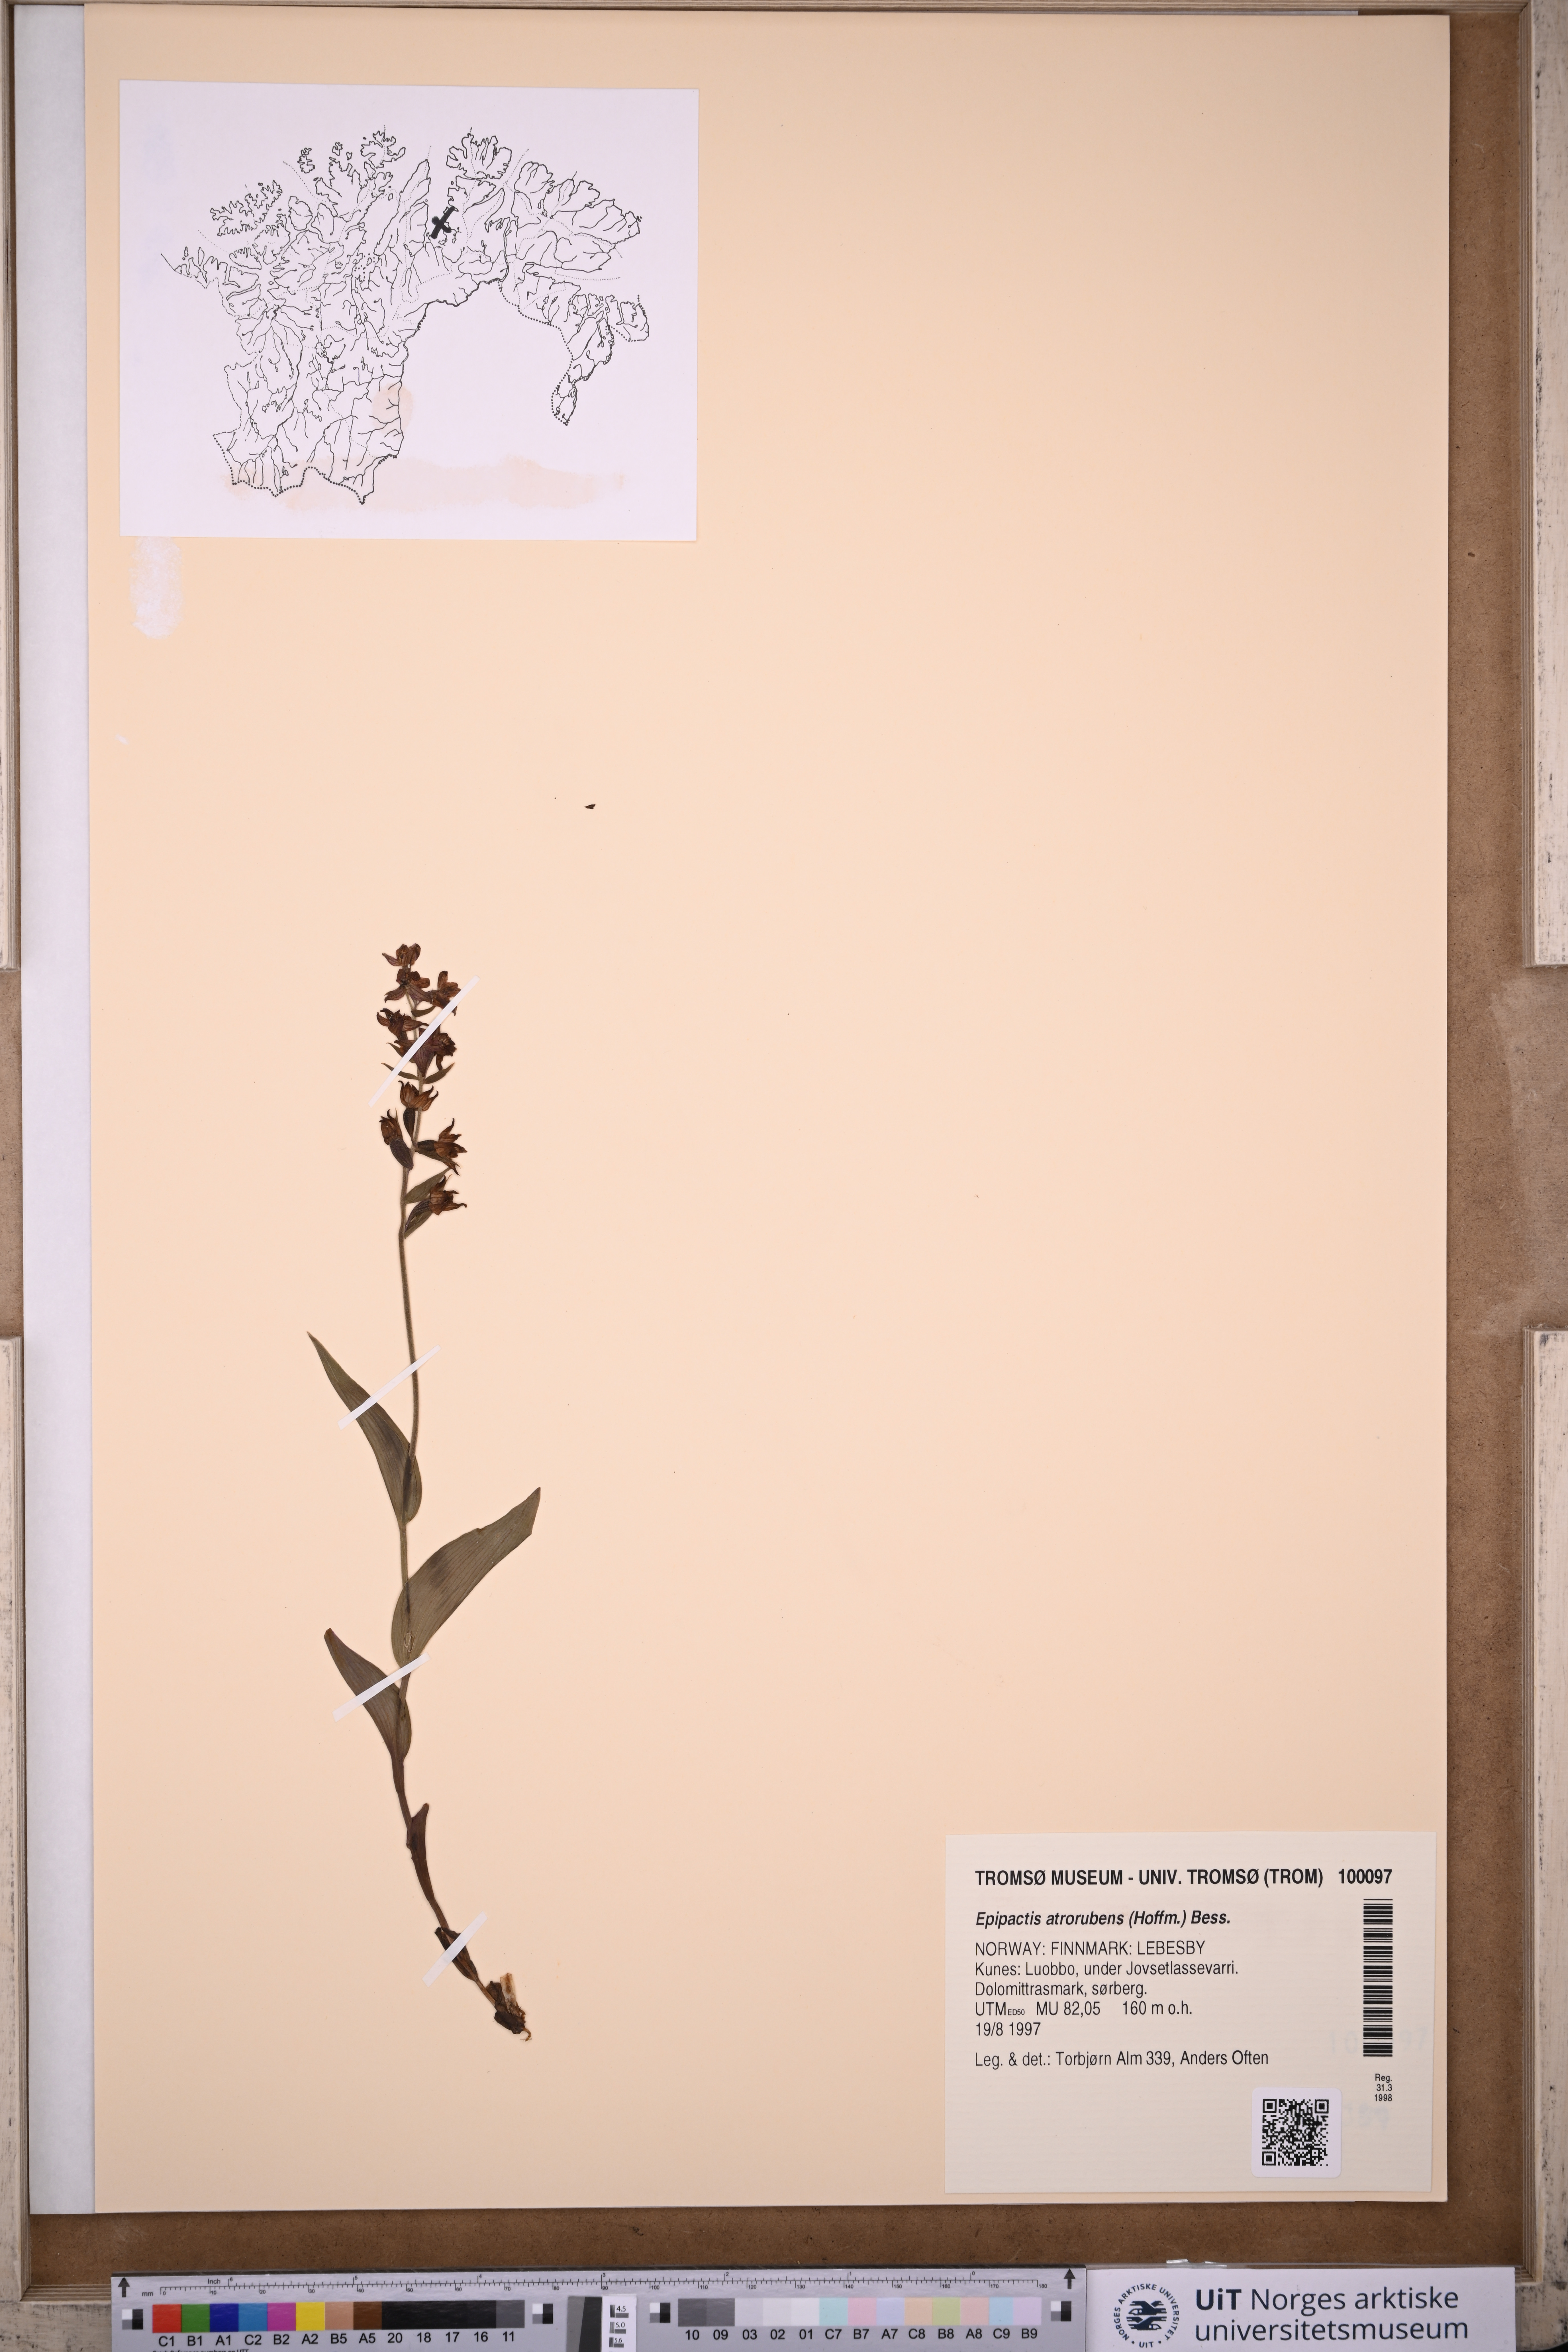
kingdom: Plantae
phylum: Tracheophyta
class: Liliopsida
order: Asparagales
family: Orchidaceae
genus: Epipactis
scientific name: Epipactis atrorubens
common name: Dark-red helleborine
